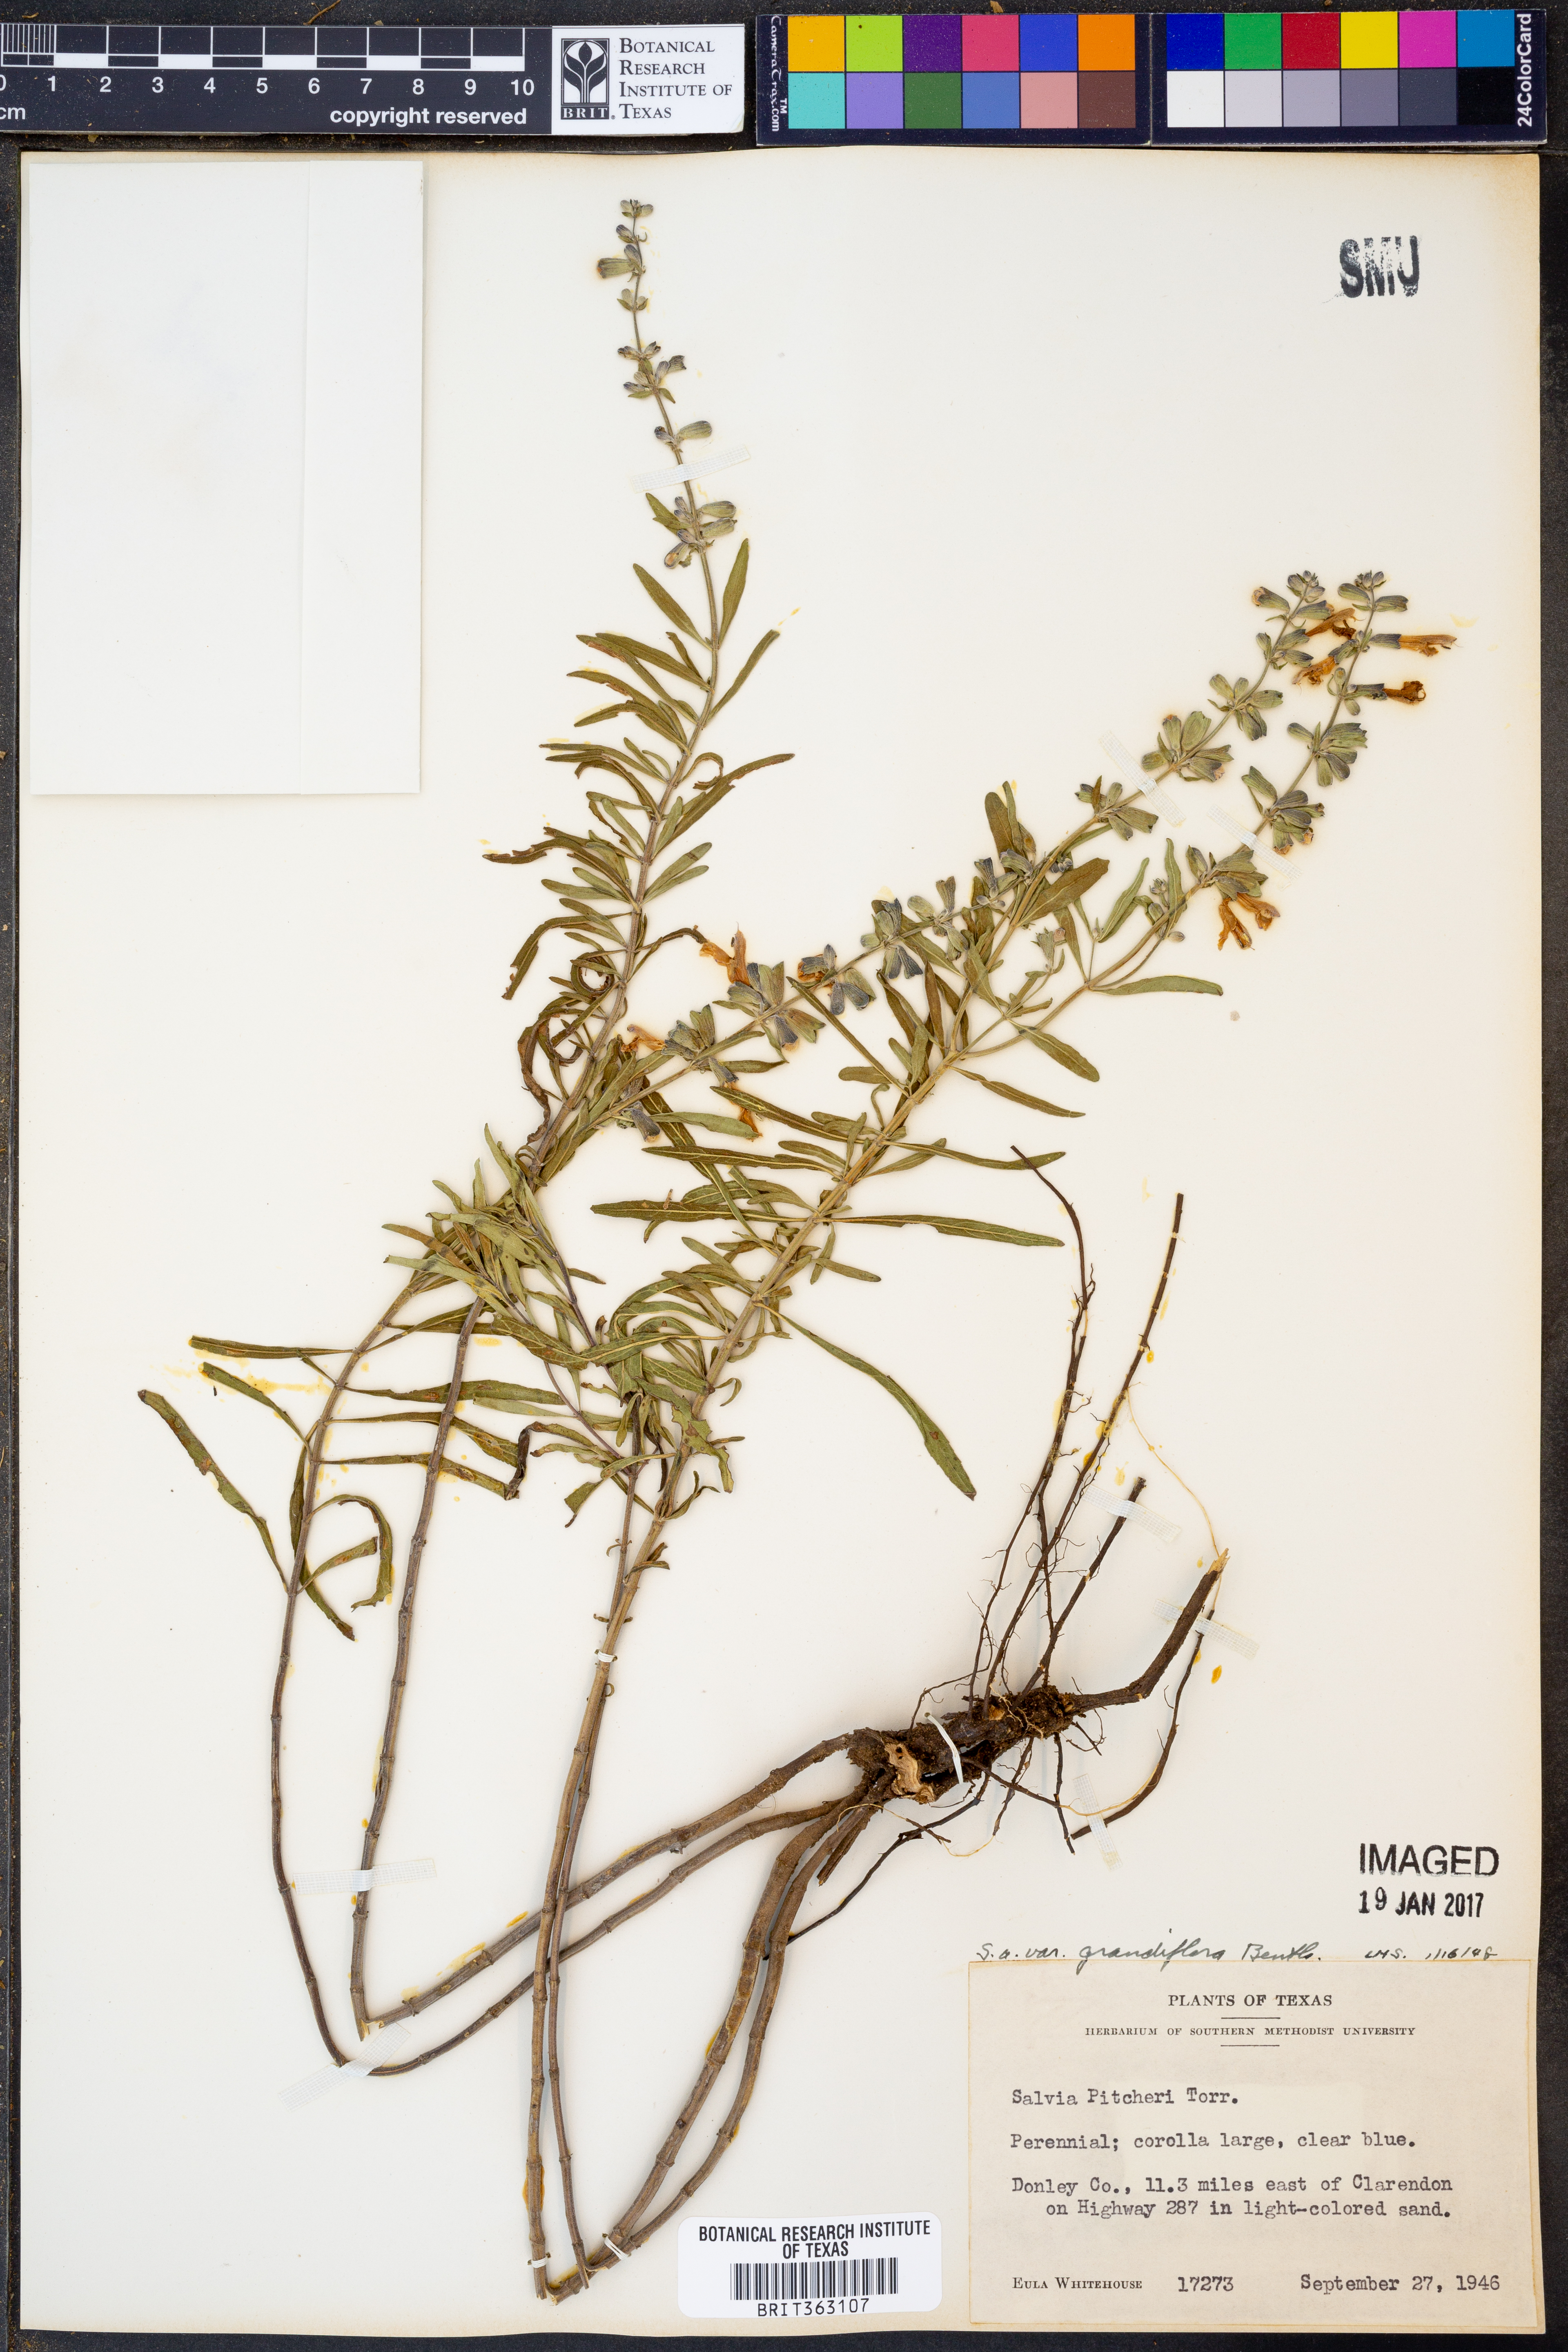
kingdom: Plantae
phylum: Tracheophyta
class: Magnoliopsida
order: Lamiales
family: Lamiaceae
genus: Salvia
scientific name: Salvia azurea
